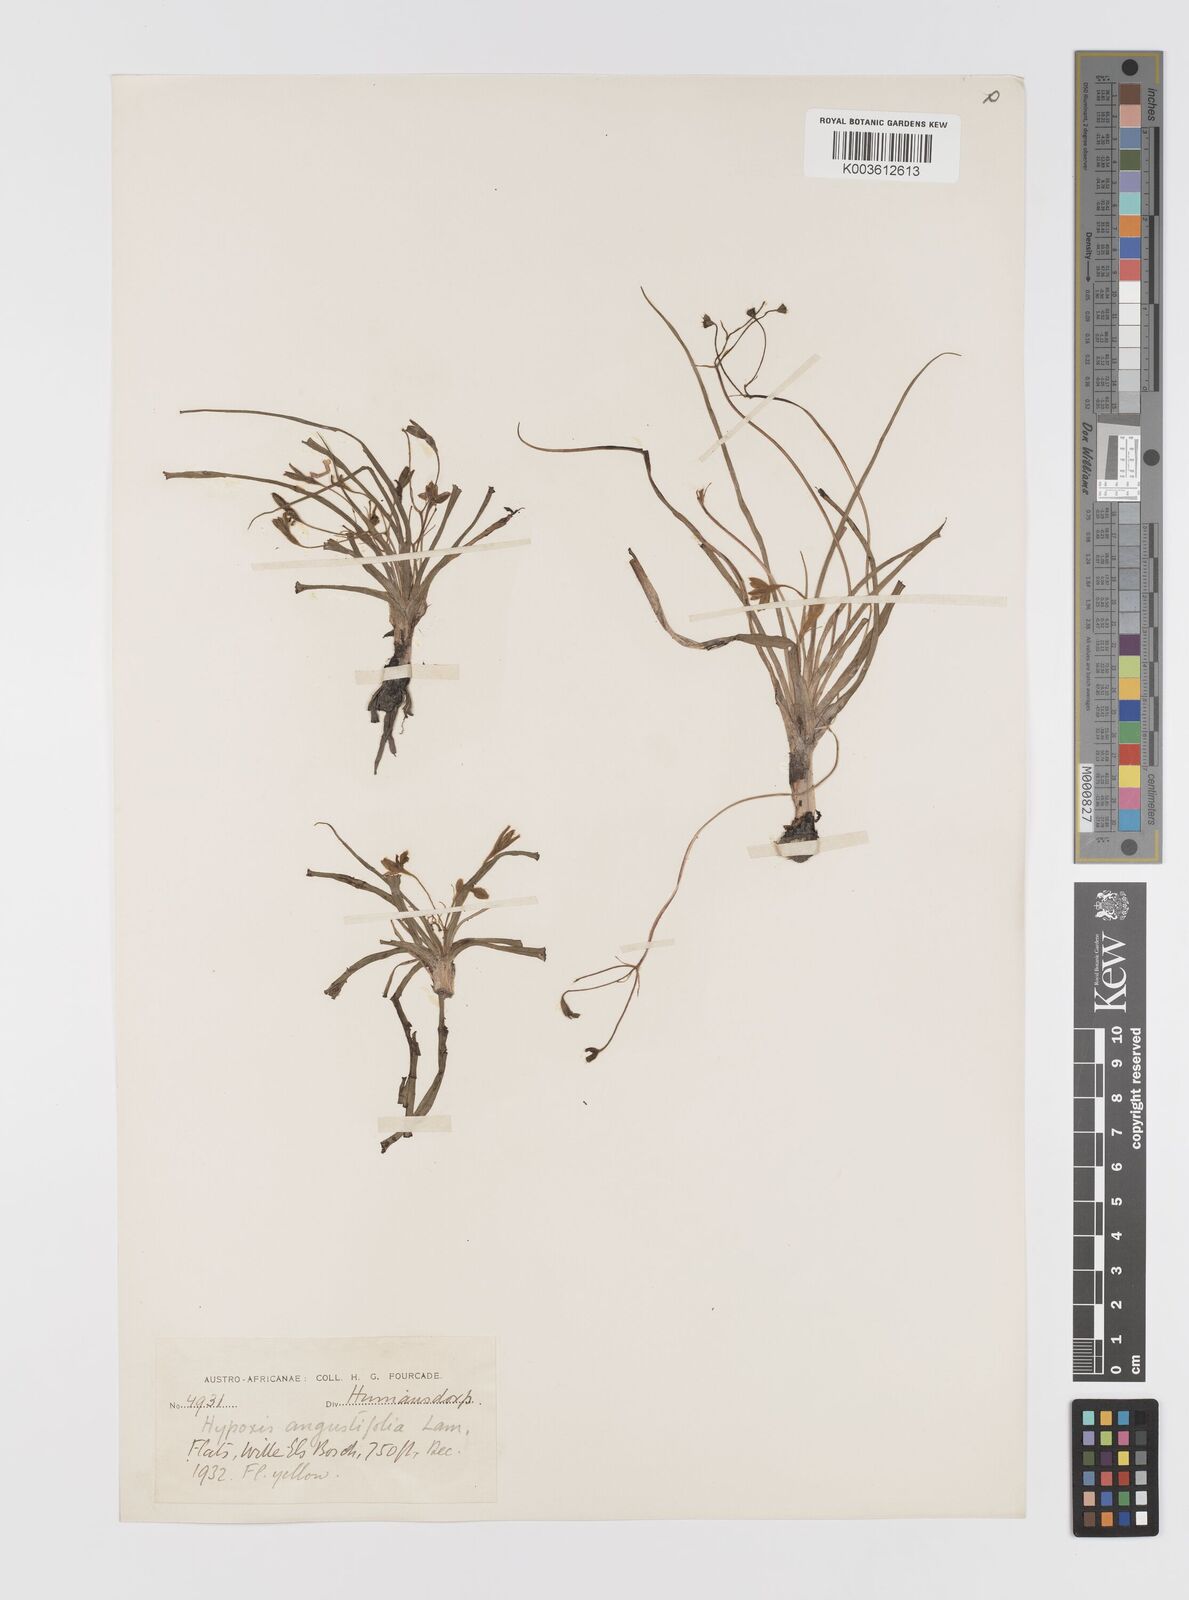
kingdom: Plantae
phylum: Tracheophyta
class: Liliopsida
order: Asparagales
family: Hypoxidaceae
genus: Hypoxis
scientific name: Hypoxis
